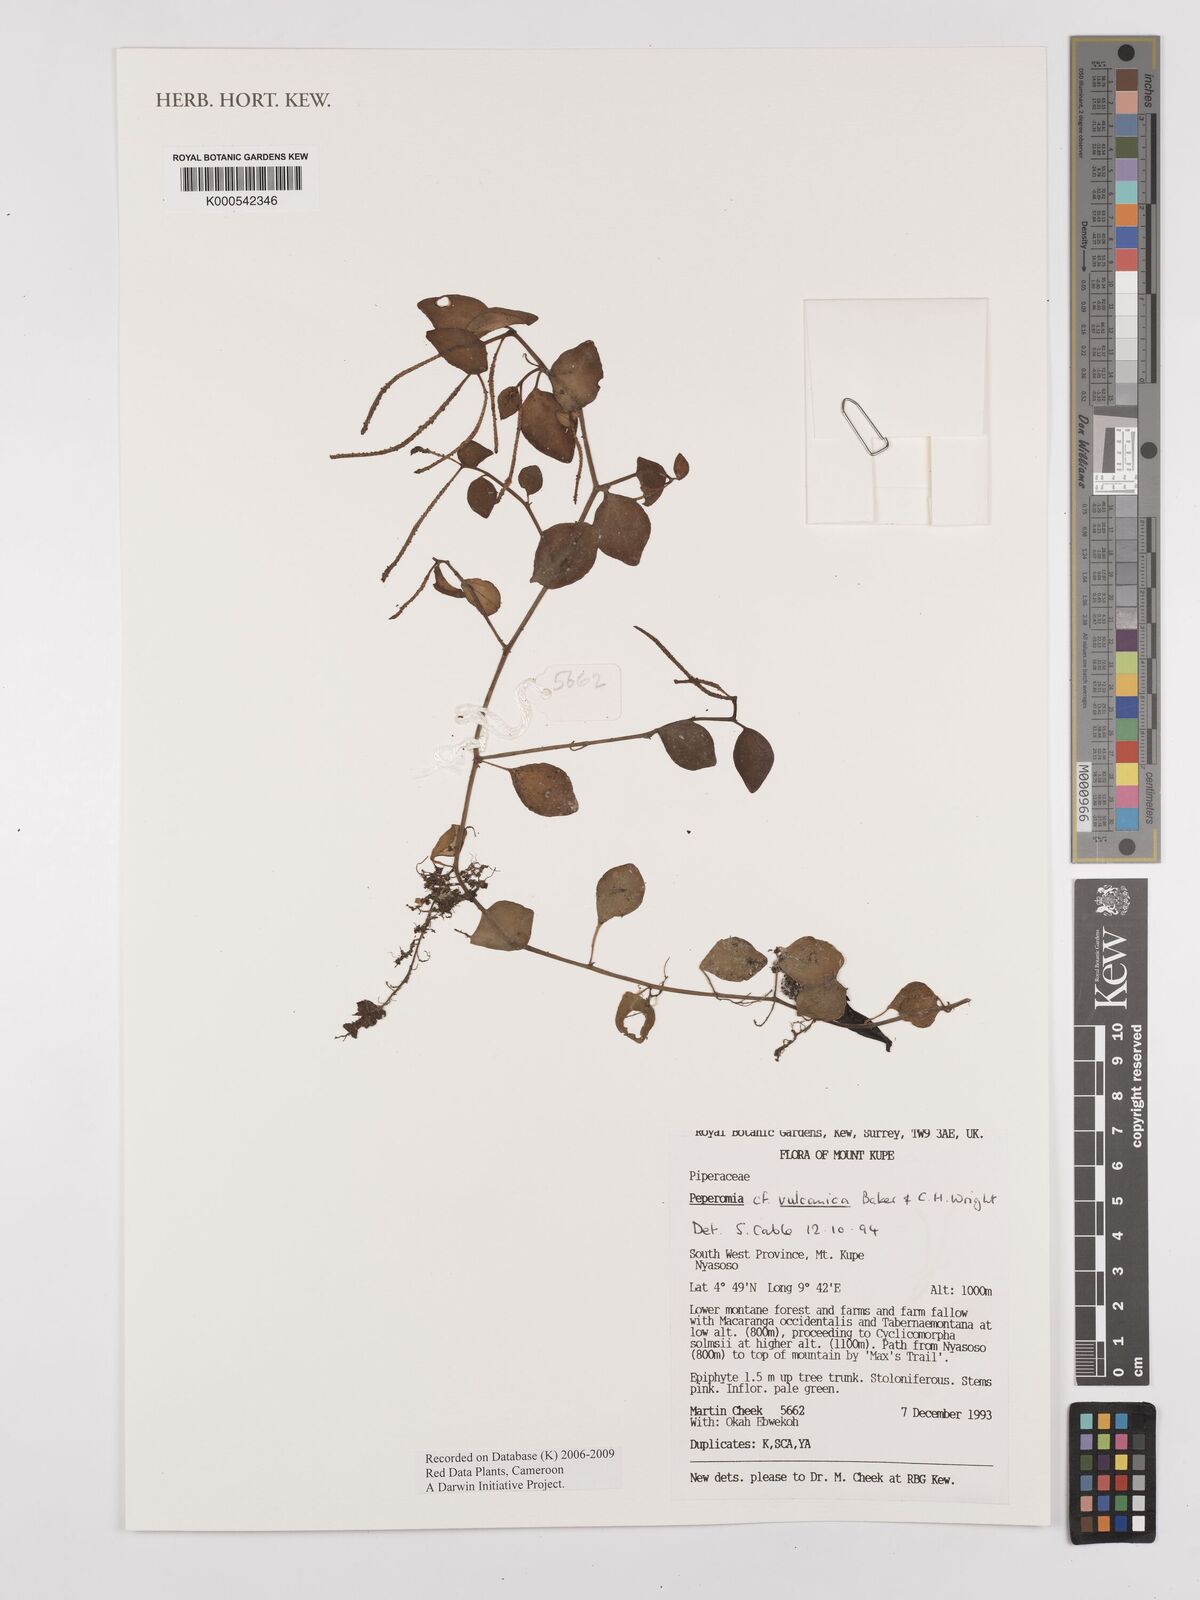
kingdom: Plantae
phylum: Tracheophyta
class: Magnoliopsida
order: Piperales
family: Piperaceae
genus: Peperomia
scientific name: Peperomia
